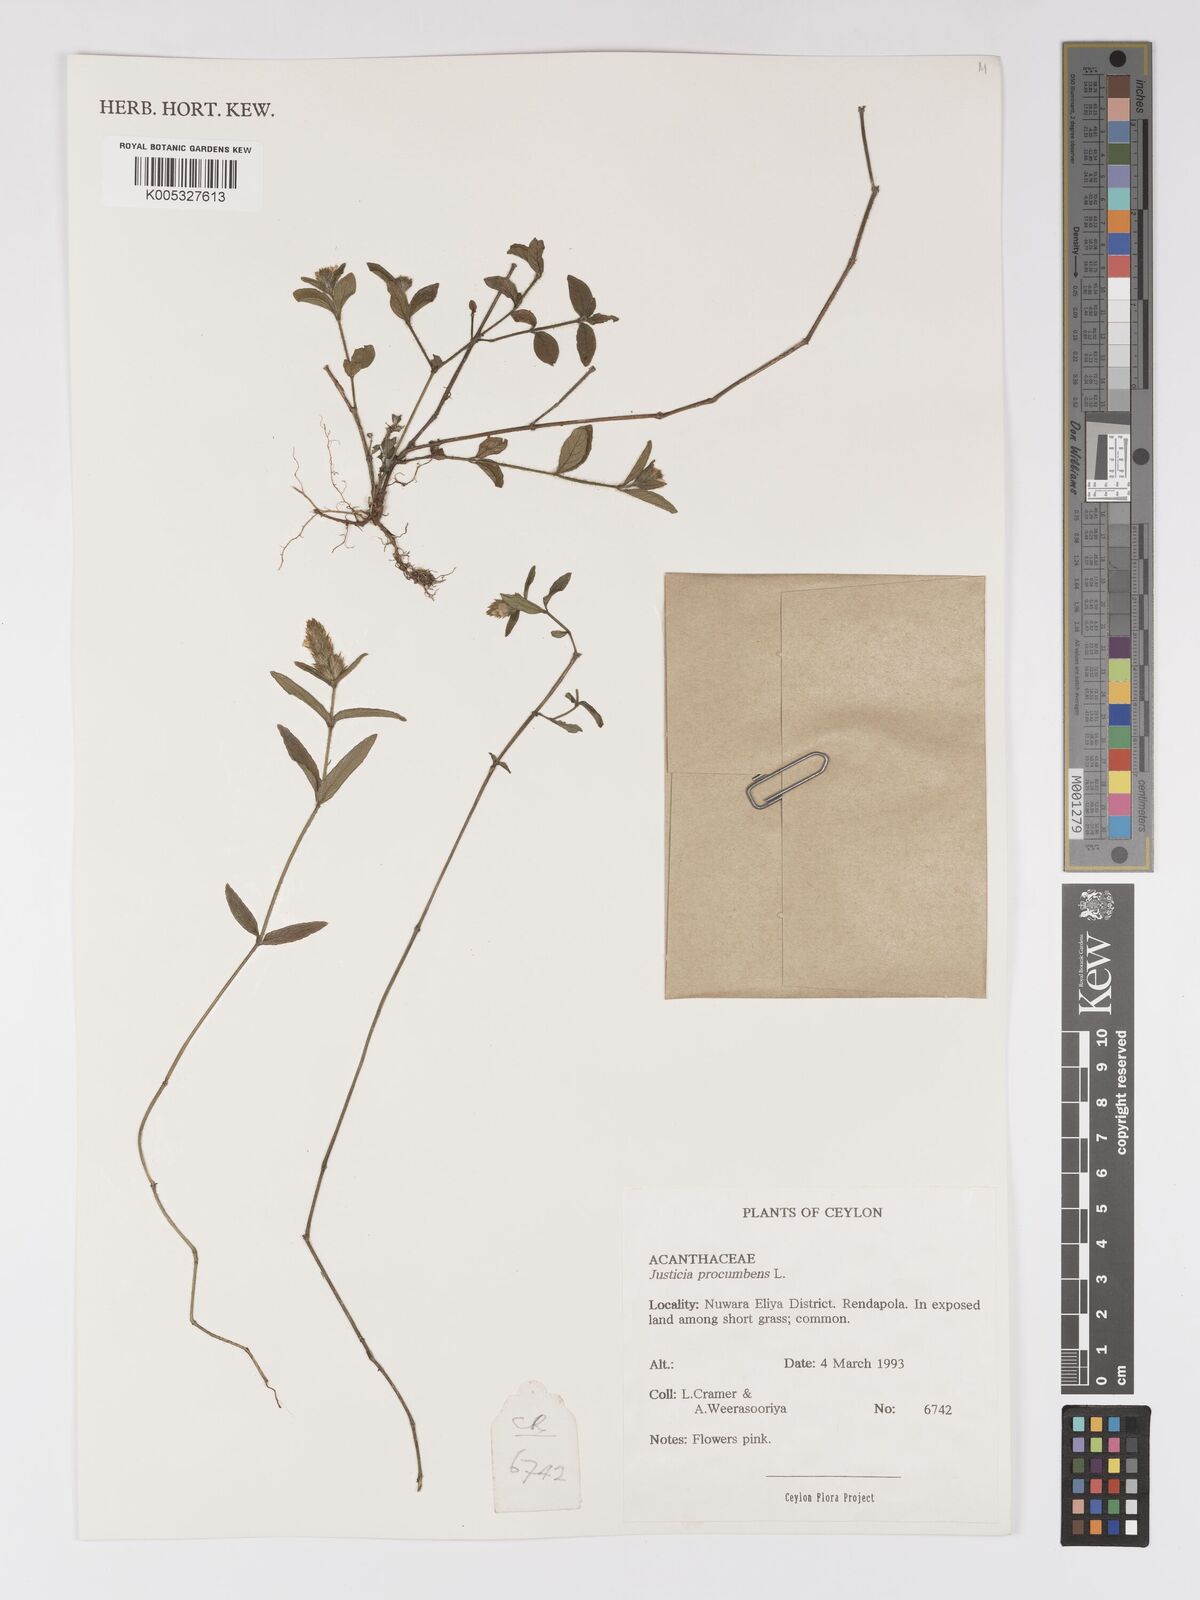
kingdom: Plantae
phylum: Tracheophyta
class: Magnoliopsida
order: Lamiales
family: Acanthaceae
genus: Rostellularia
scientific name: Rostellularia procumbens
